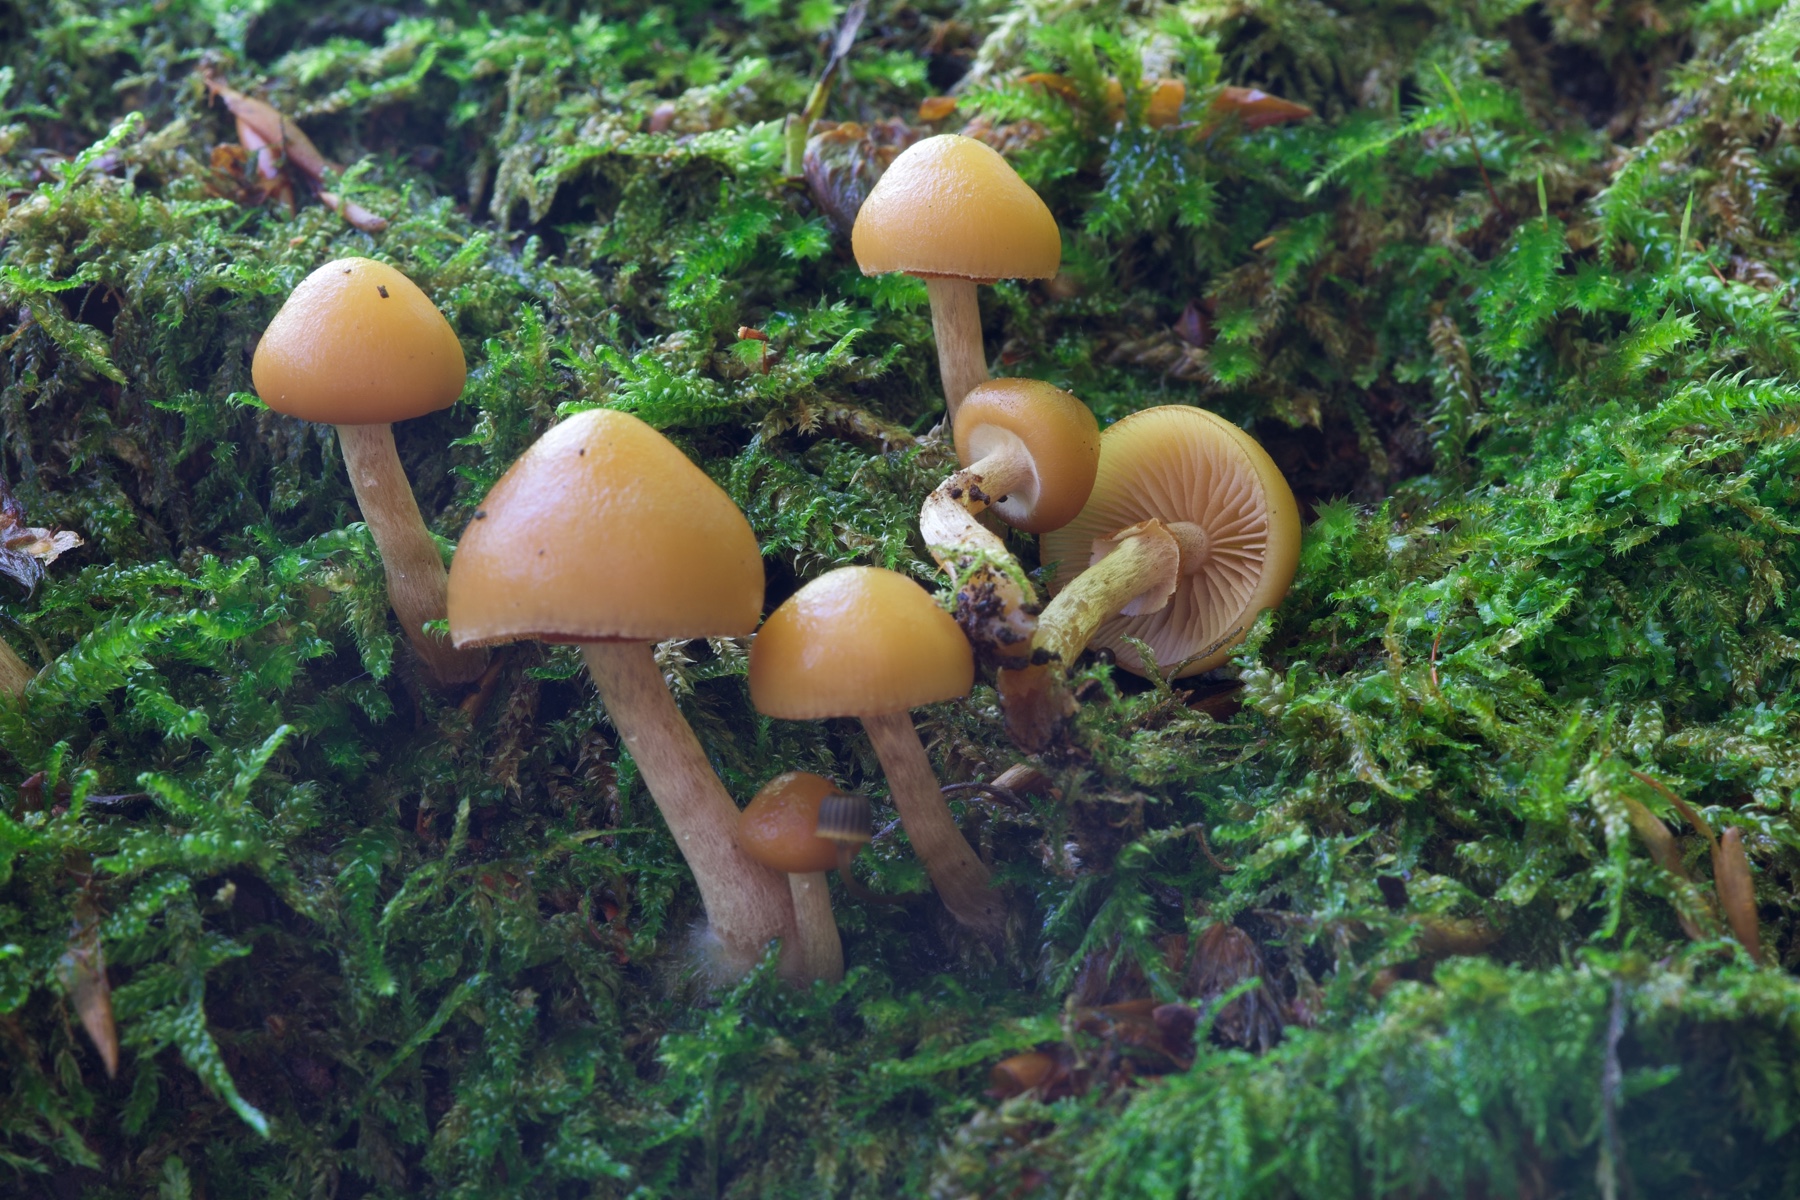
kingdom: Fungi
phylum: Basidiomycota
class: Agaricomycetes
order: Agaricales
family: Hymenogastraceae
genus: Galerina
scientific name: Galerina marginata
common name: randbæltet hjelmhat
